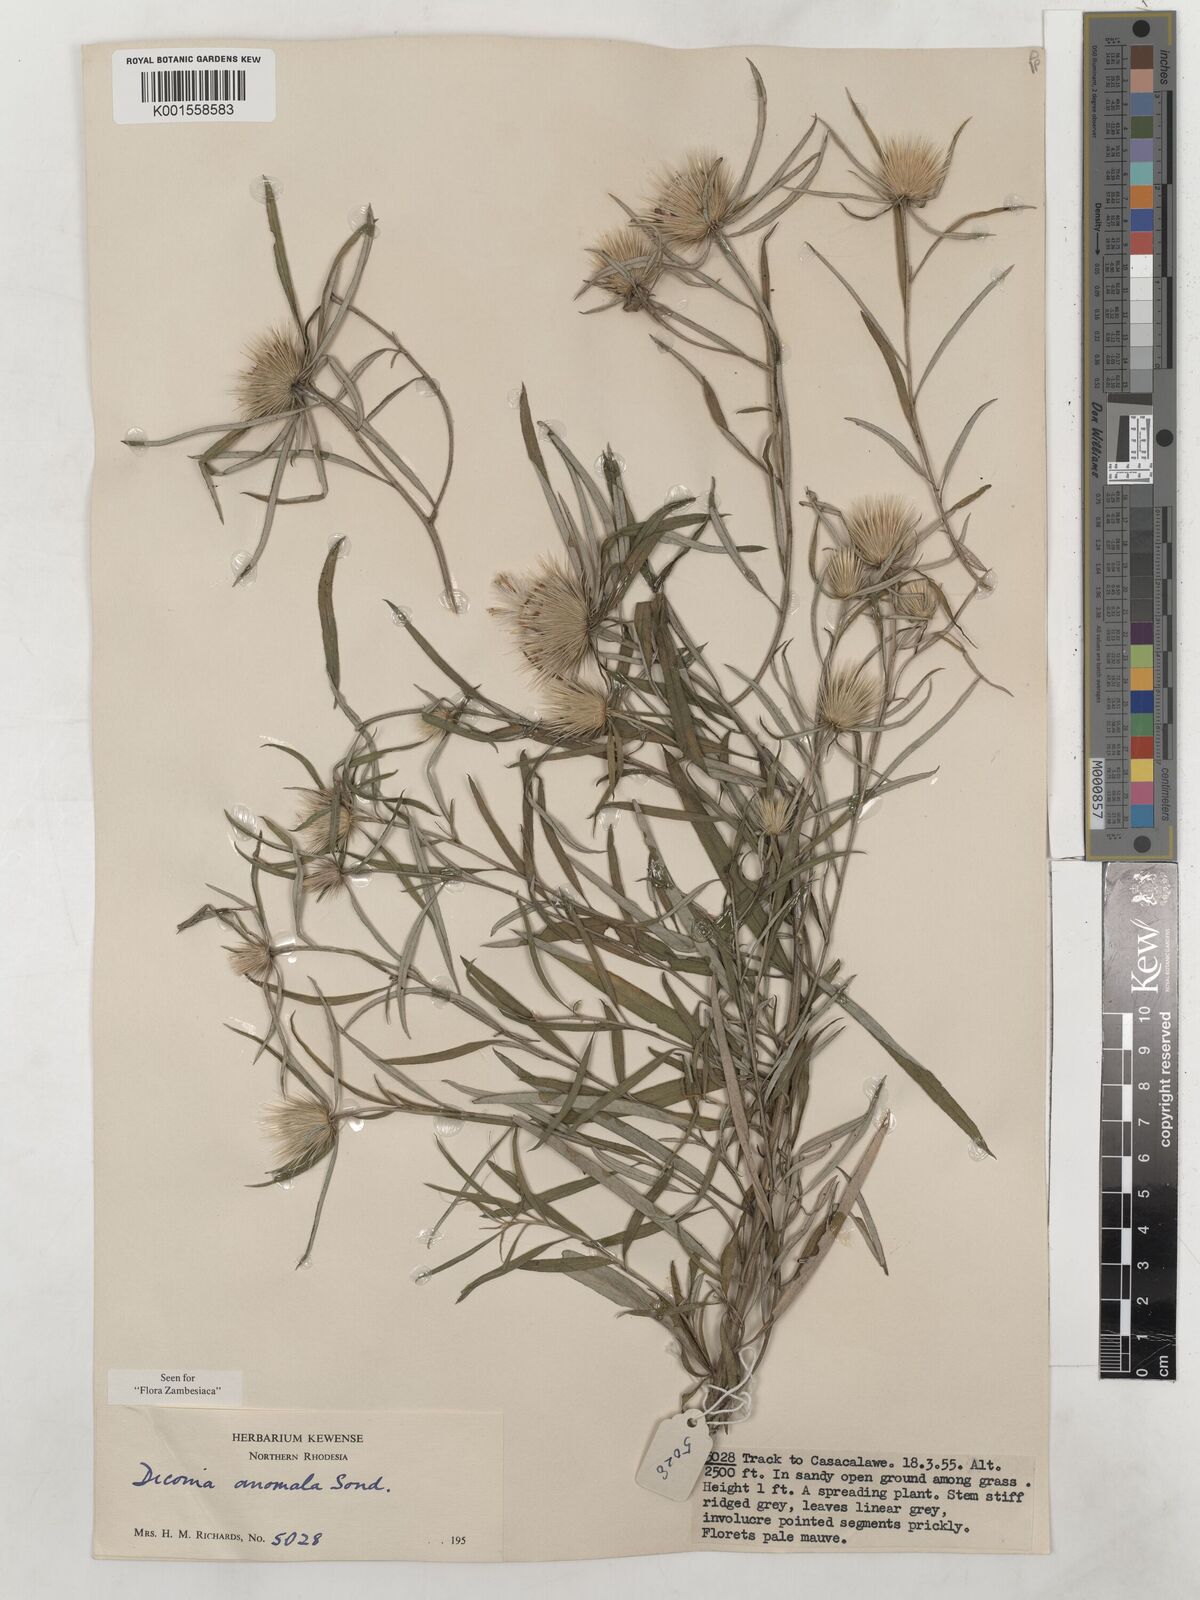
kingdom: Plantae
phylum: Tracheophyta
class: Magnoliopsida
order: Asterales
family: Asteraceae
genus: Dicoma
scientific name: Dicoma anomala
